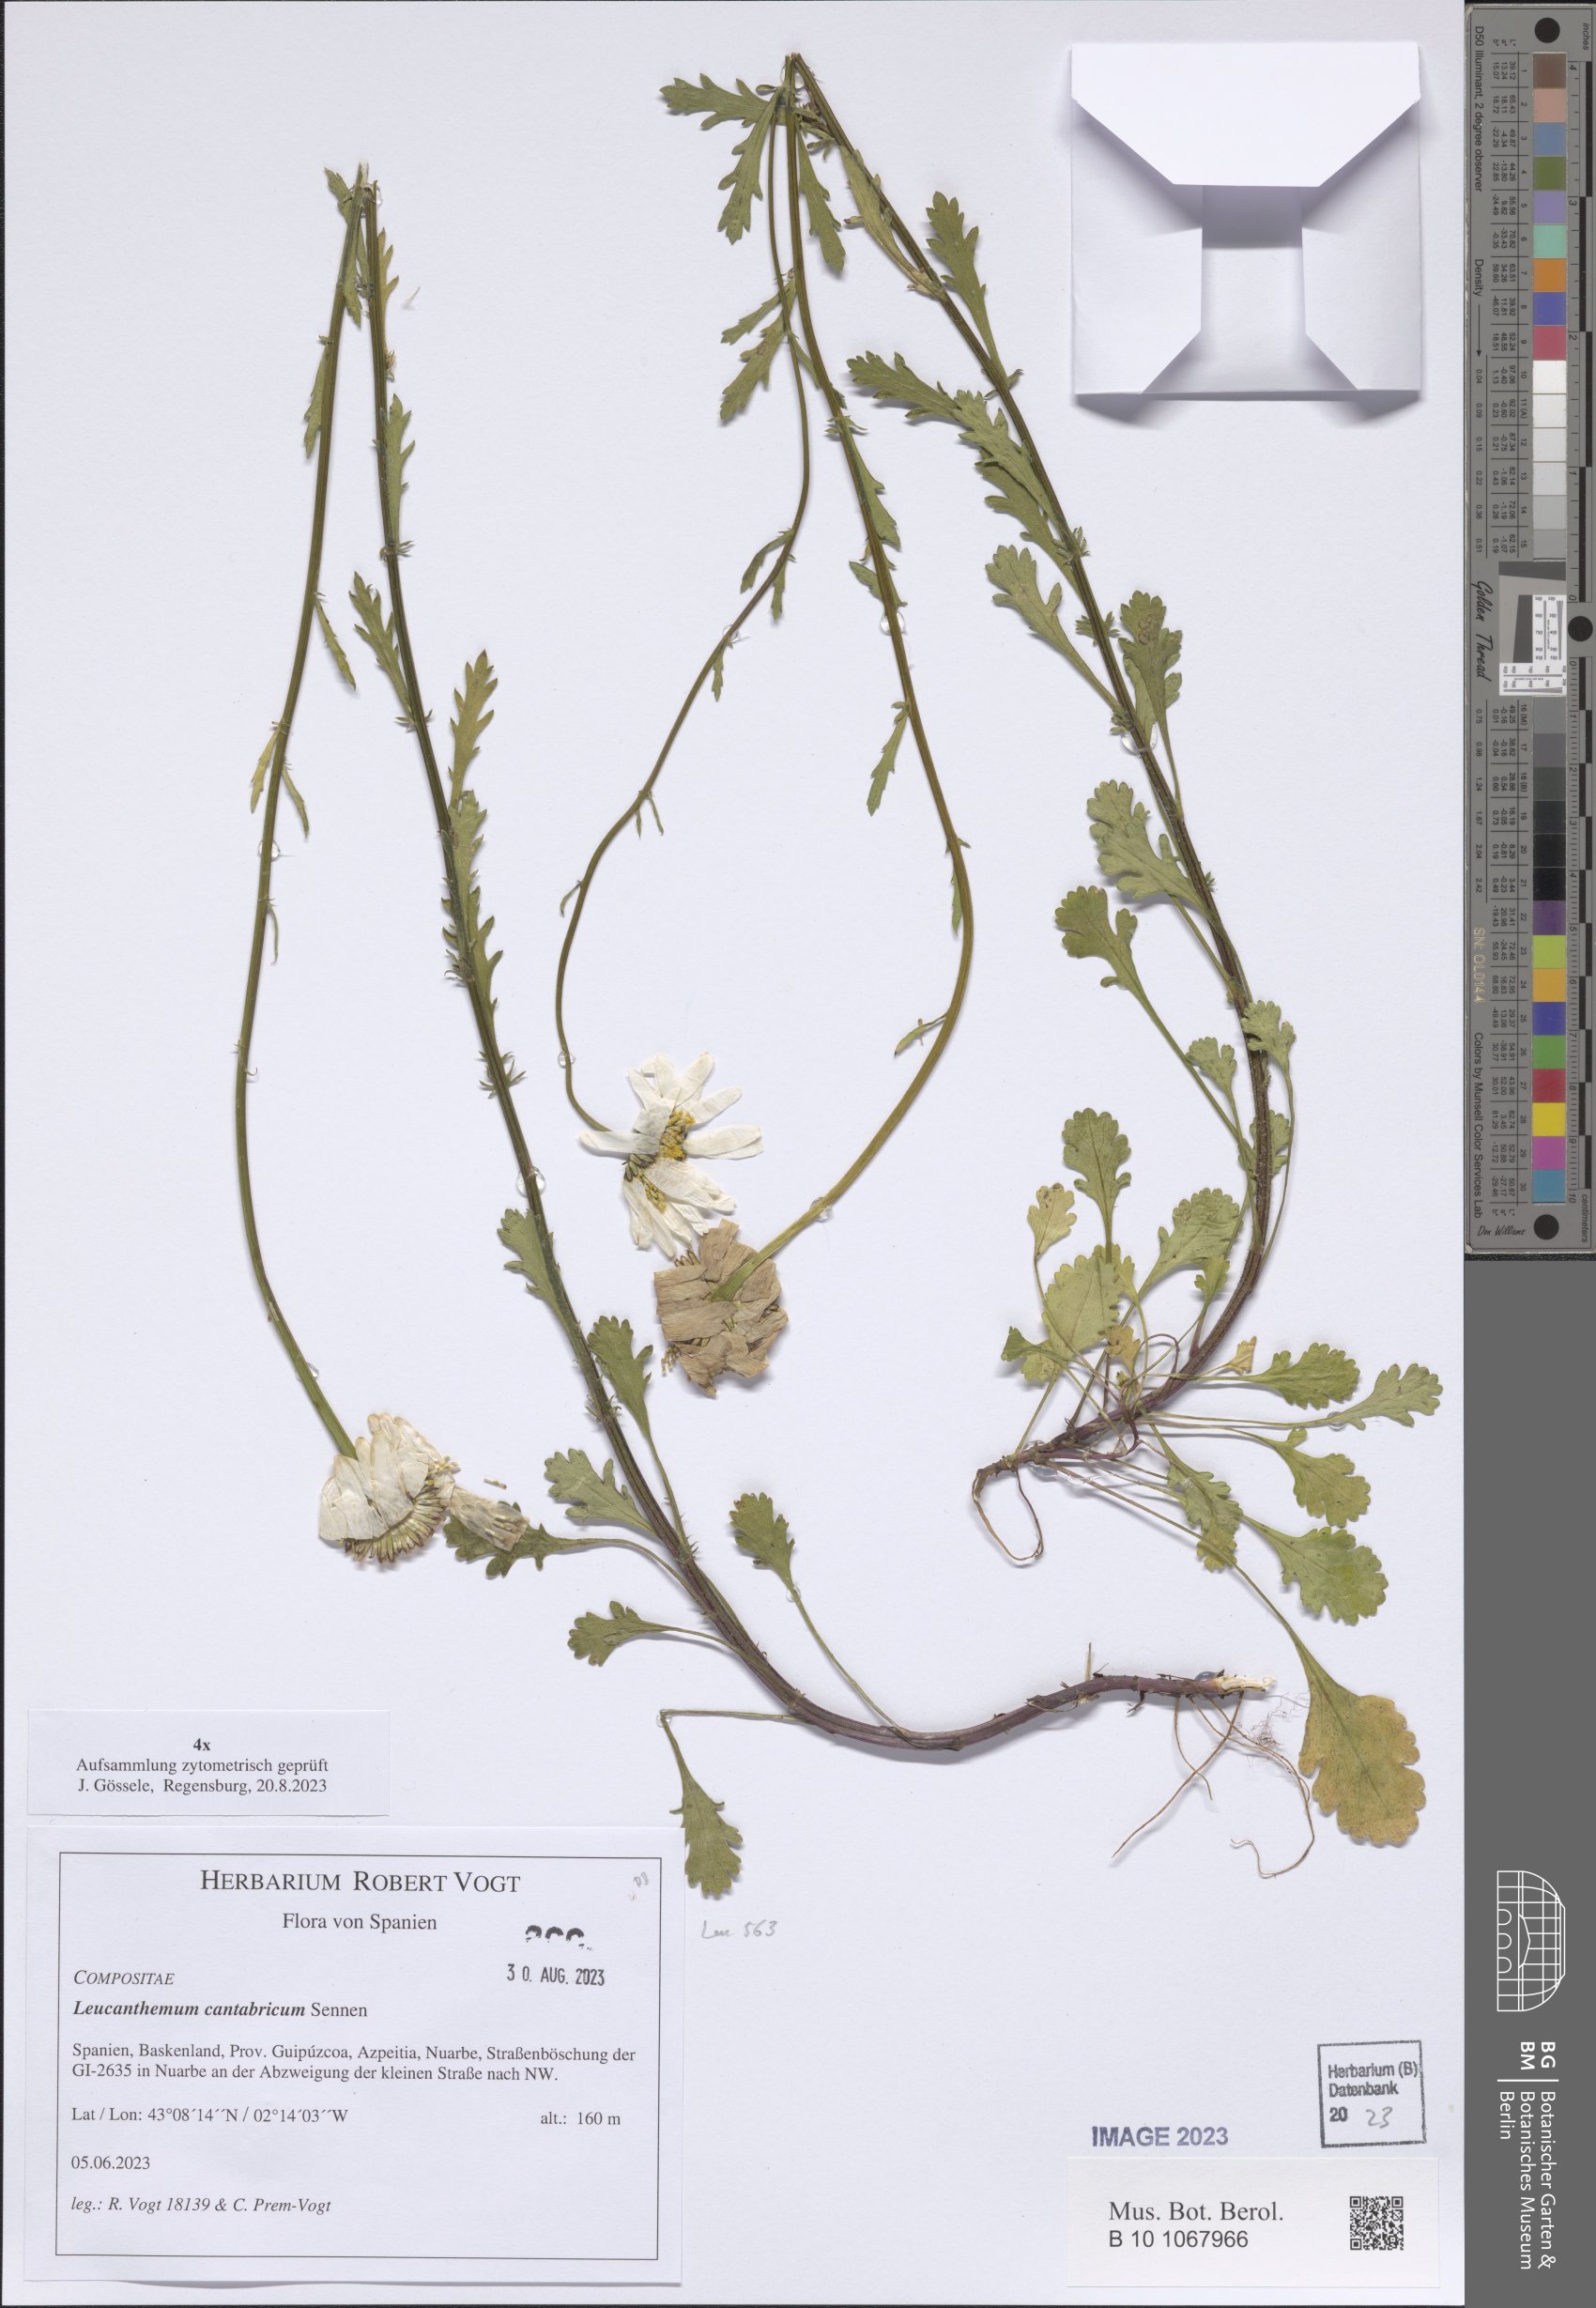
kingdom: Plantae
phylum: Tracheophyta
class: Magnoliopsida
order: Asterales
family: Asteraceae
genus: Leucanthemum
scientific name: Leucanthemum cantabricum
